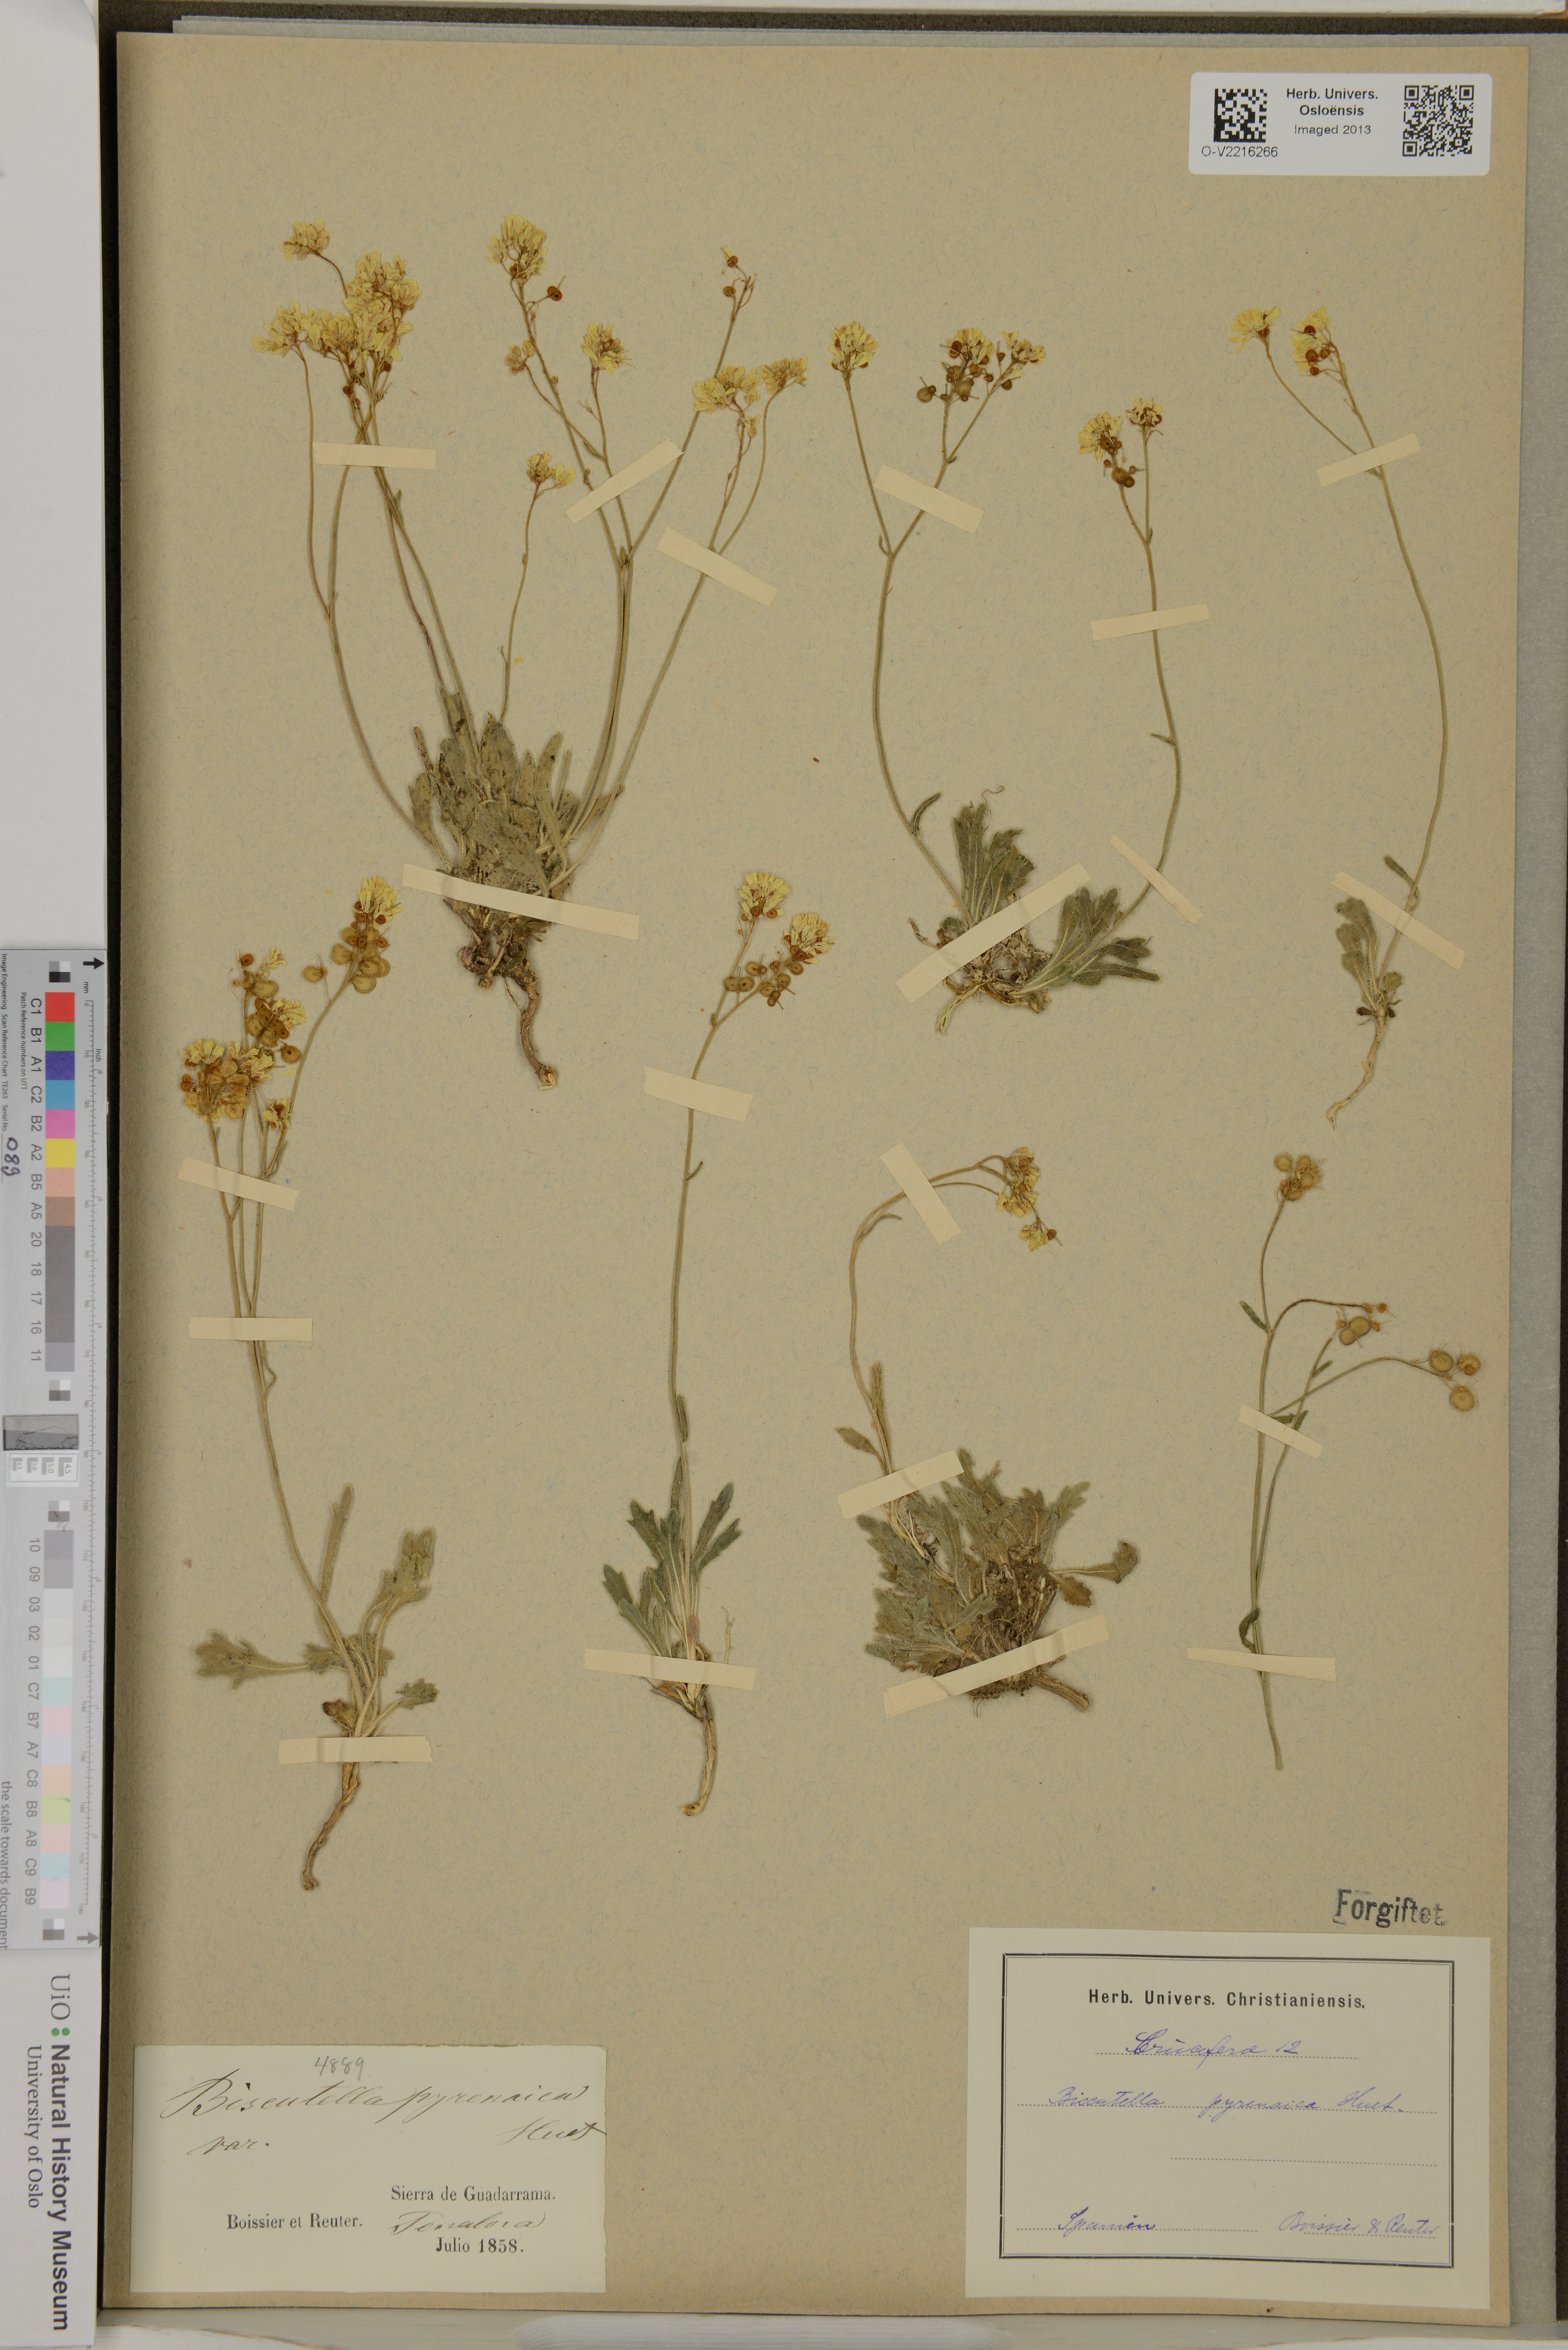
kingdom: Plantae
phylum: Tracheophyta
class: Magnoliopsida
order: Brassicales
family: Brassicaceae
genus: Biscutella
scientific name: Biscutella intermedia
